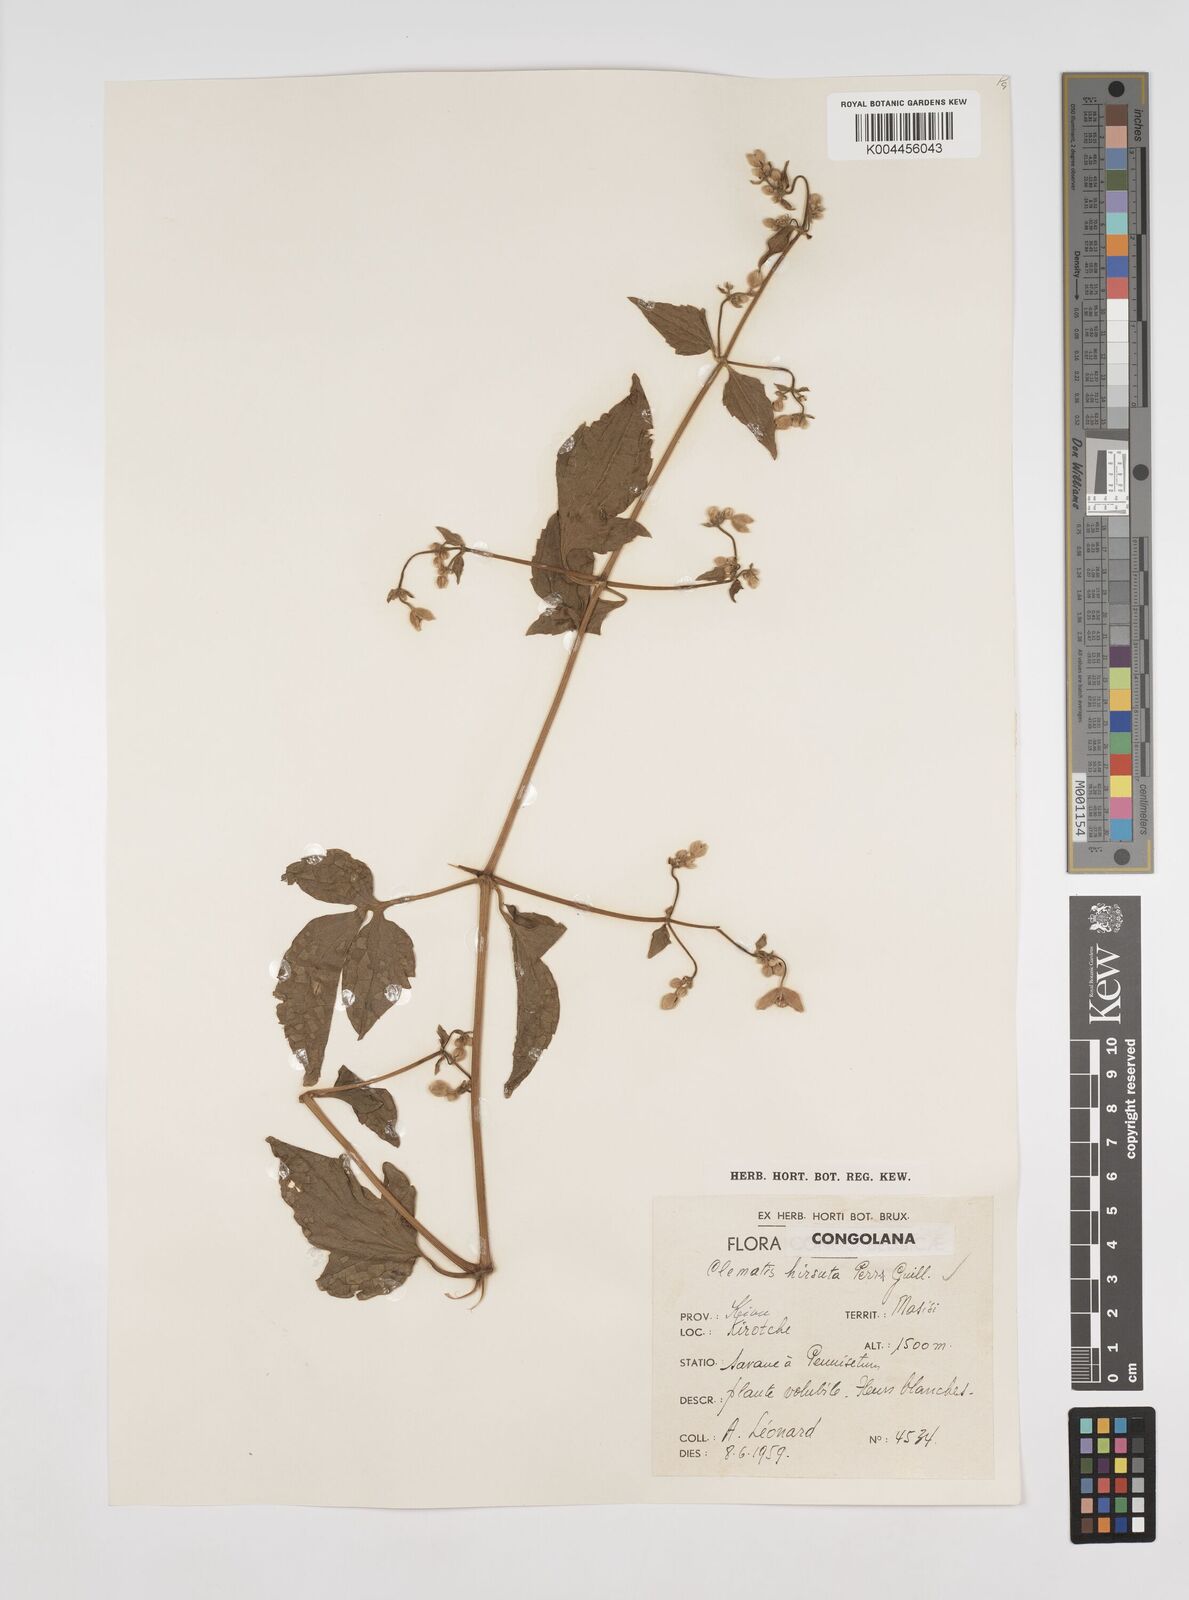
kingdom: Plantae
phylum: Tracheophyta
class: Magnoliopsida
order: Ranunculales
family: Ranunculaceae
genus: Clematis
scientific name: Clematis hirsuta
